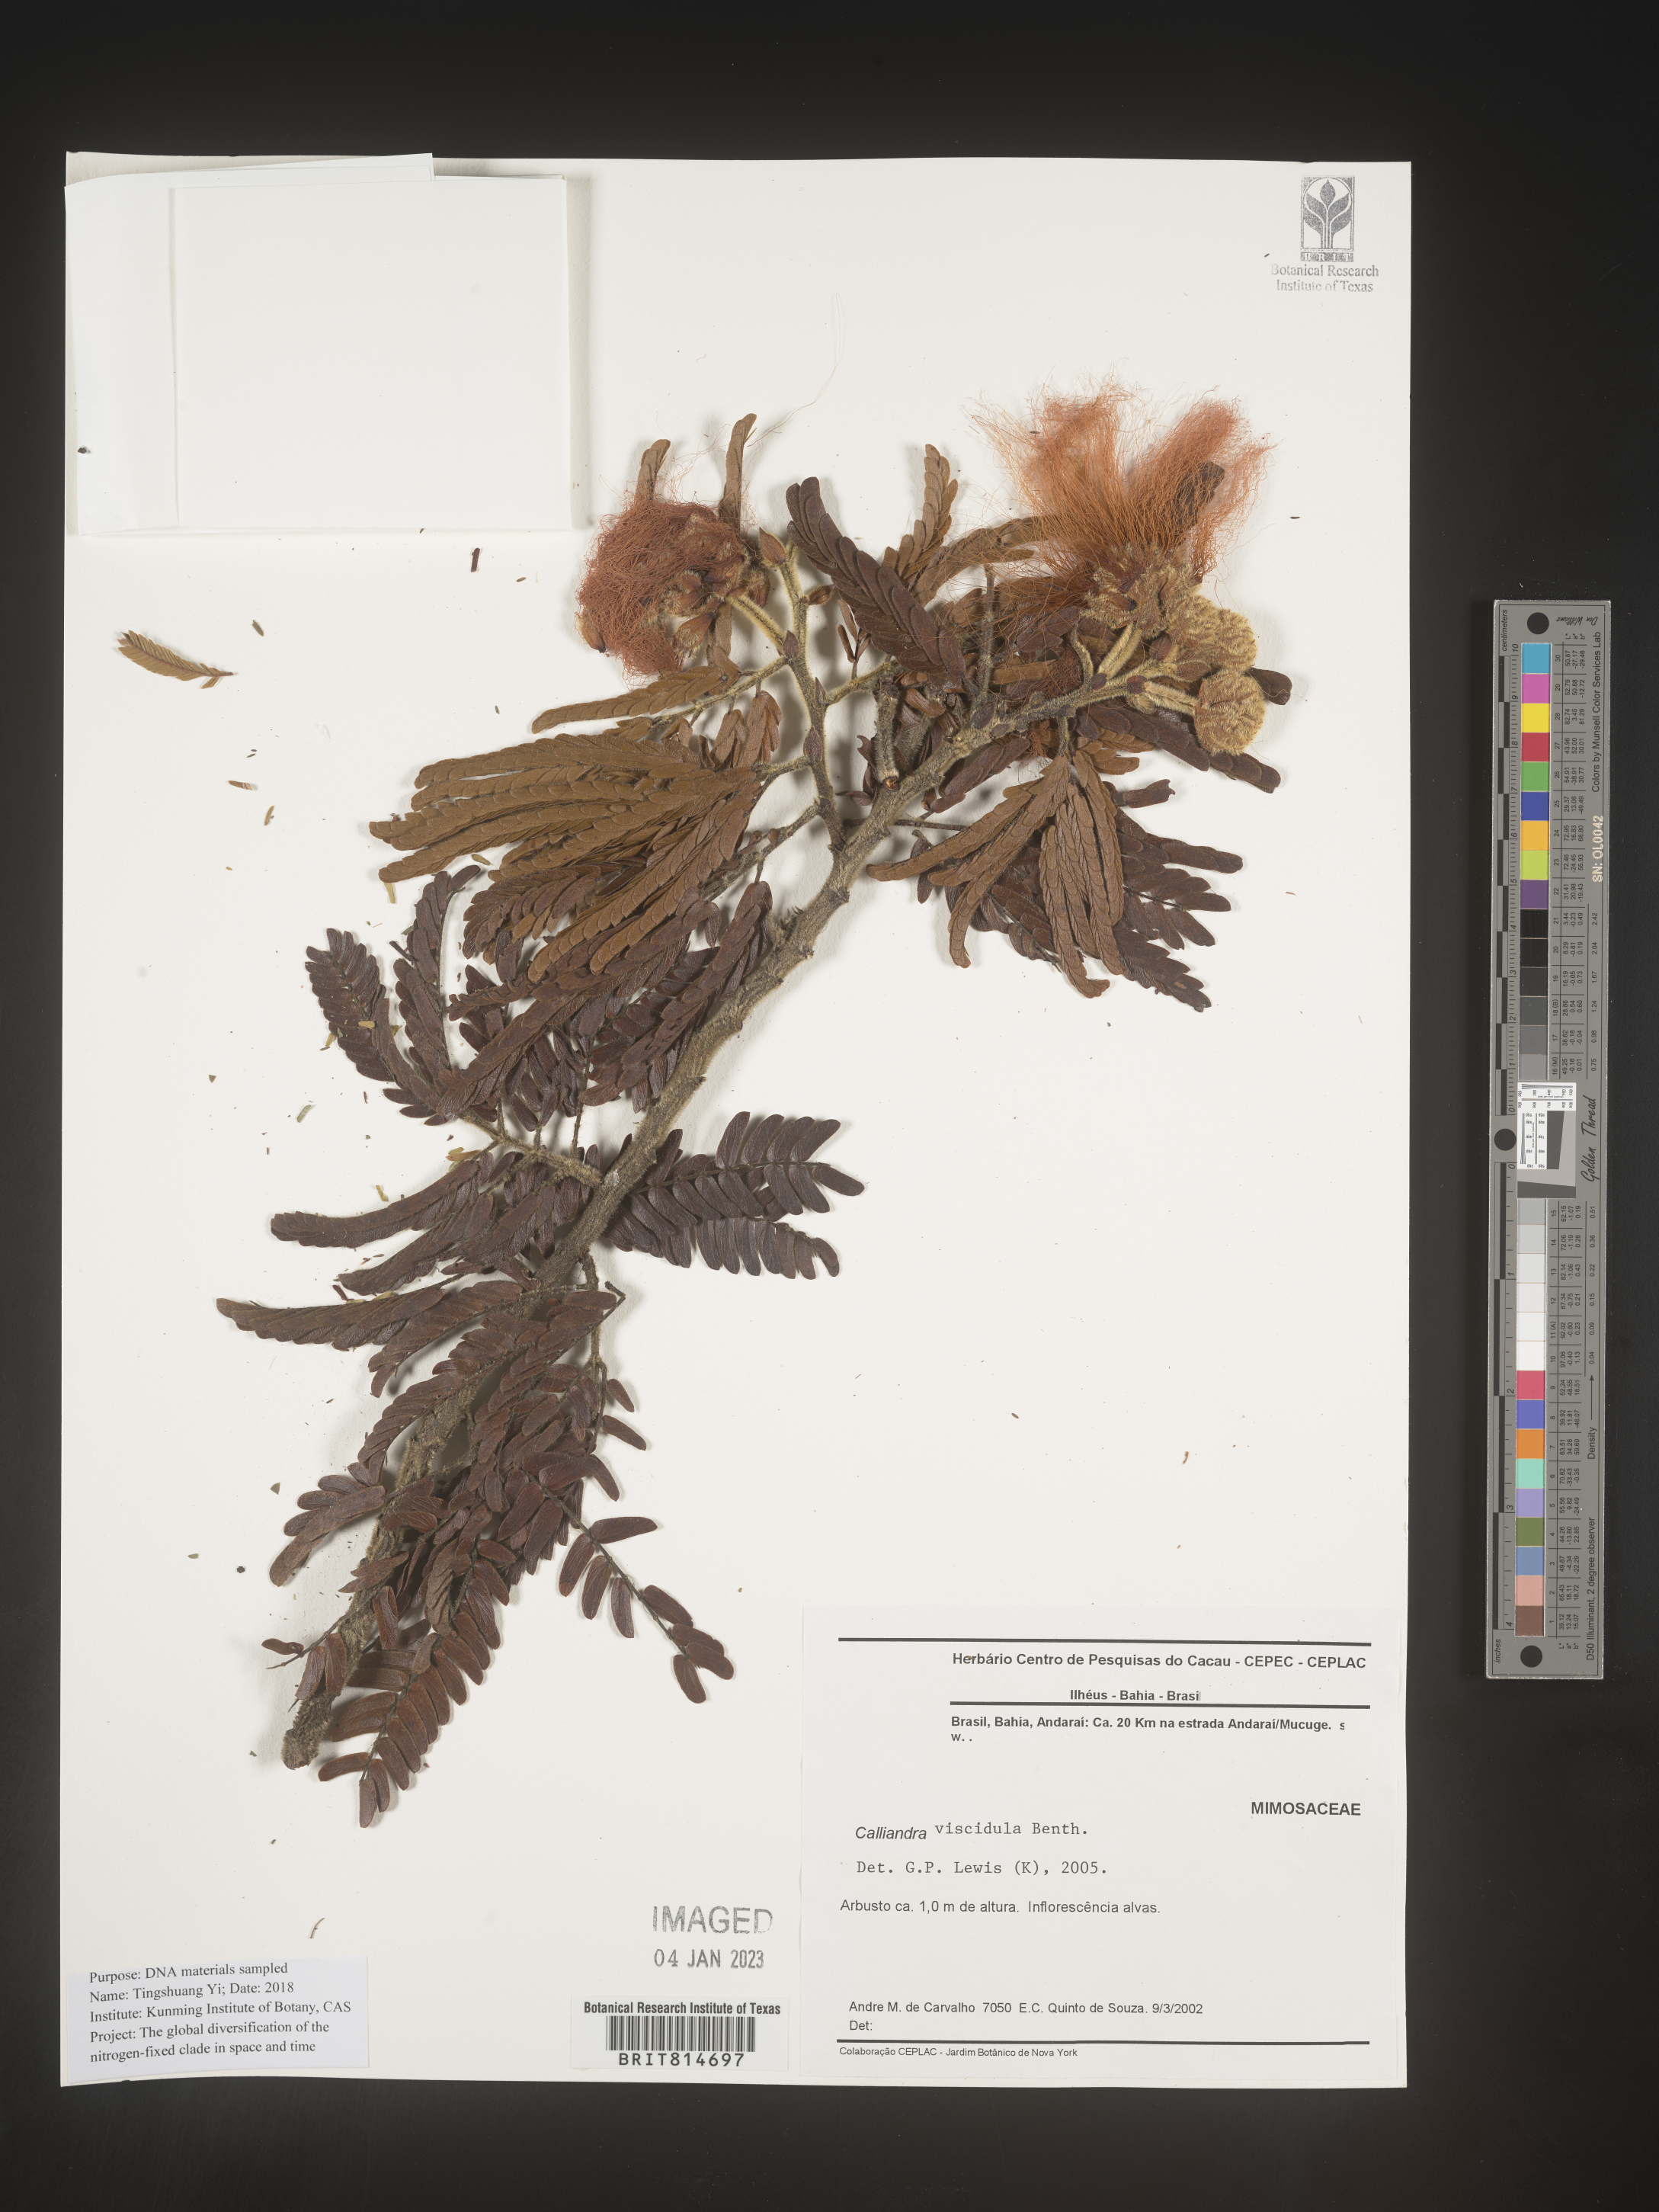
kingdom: Plantae
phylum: Tracheophyta
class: Magnoliopsida
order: Fabales
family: Fabaceae
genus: Calliandra
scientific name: Calliandra
